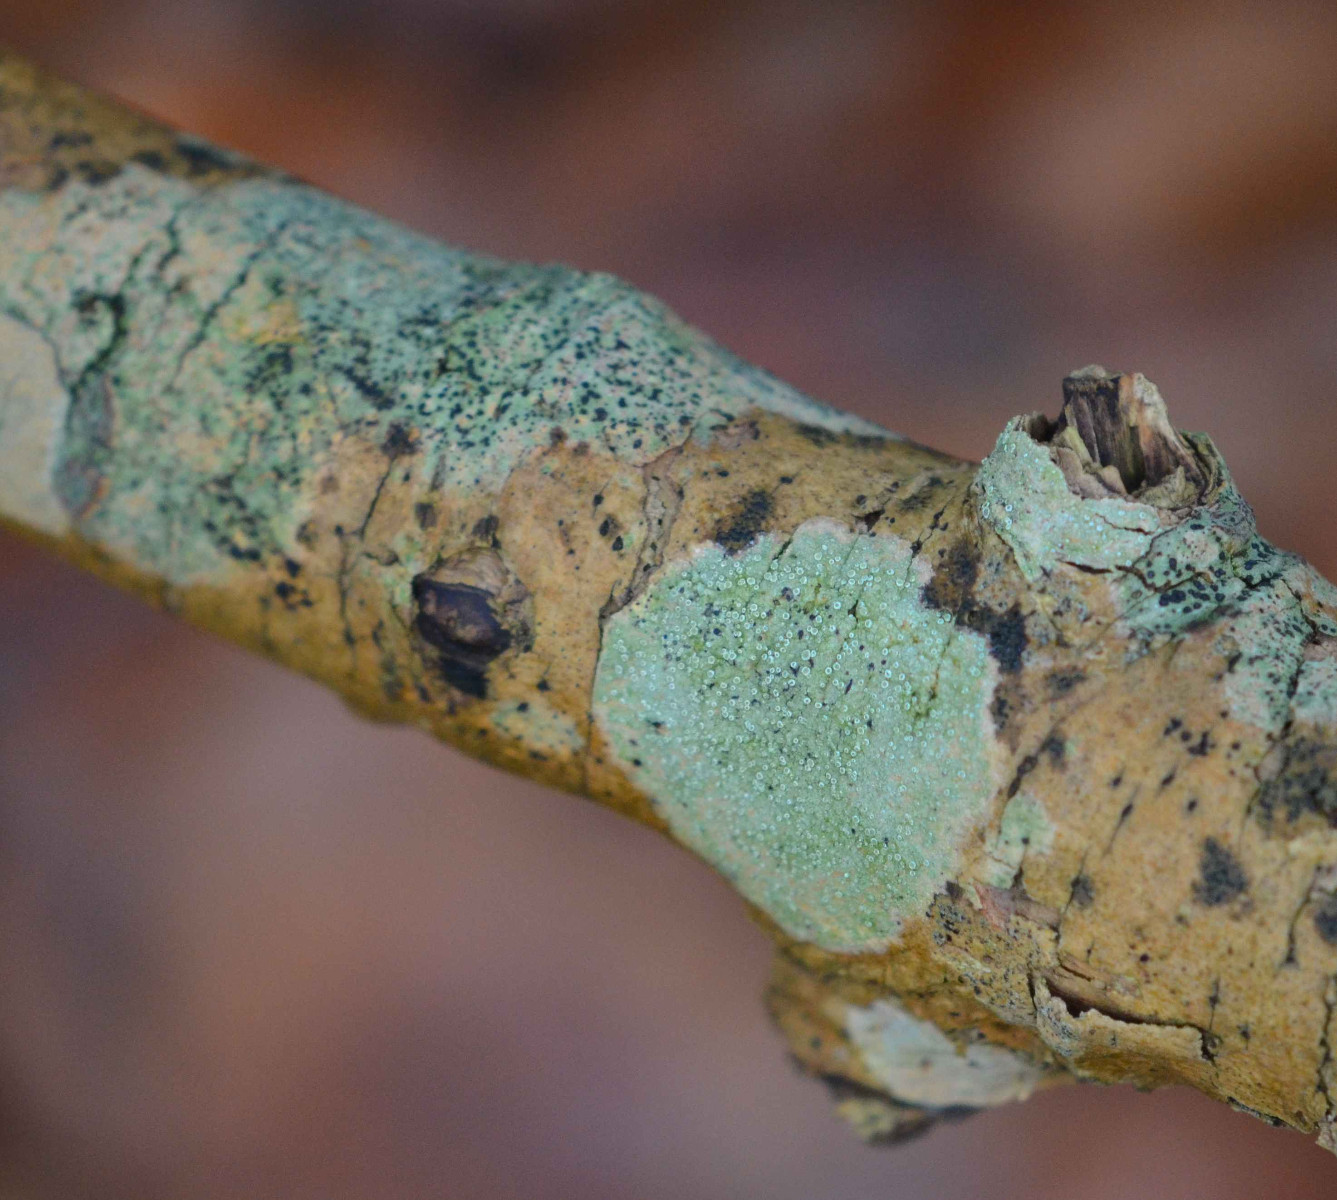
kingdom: Fungi
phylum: Ascomycota
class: Lecanoromycetes
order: Lecanorales
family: Lecanoraceae
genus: Lecanora
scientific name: Lecanora
